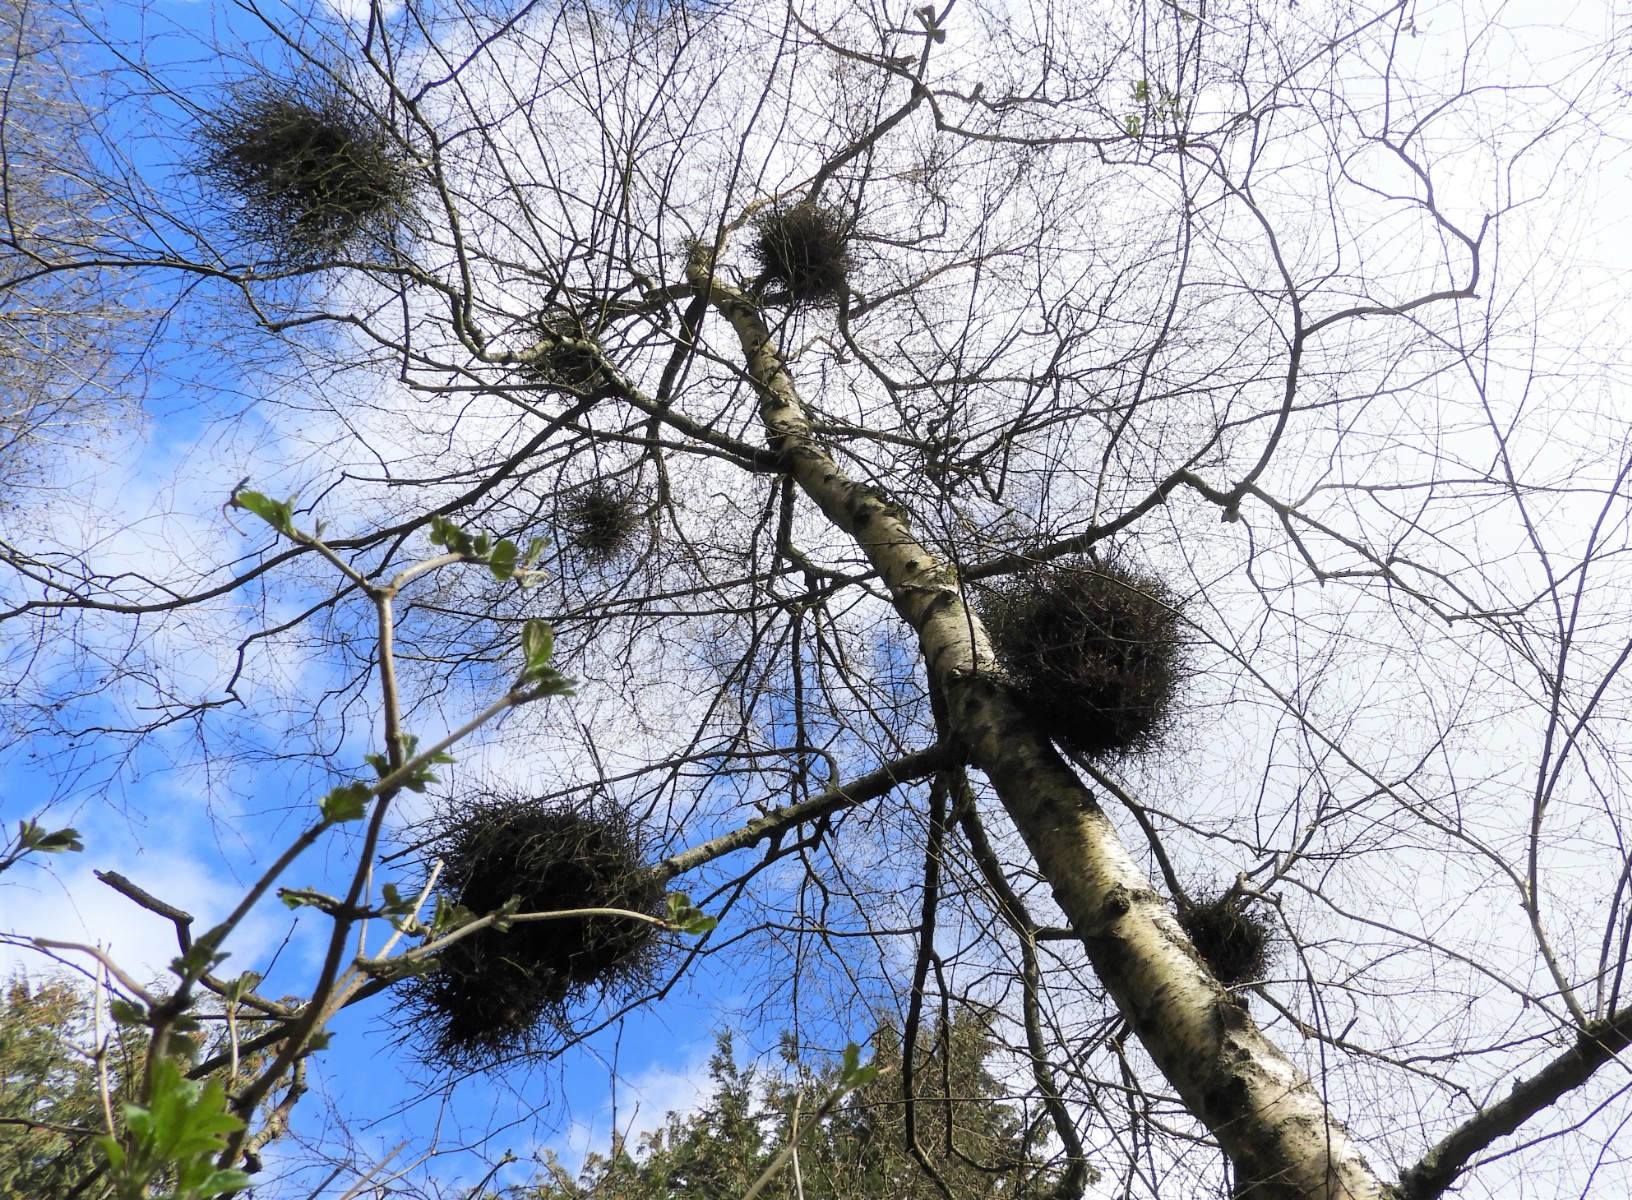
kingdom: Fungi
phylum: Ascomycota
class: Taphrinomycetes
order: Taphrinales
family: Taphrinaceae
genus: Taphrina
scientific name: Taphrina betulina
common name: hekse-sækdug
